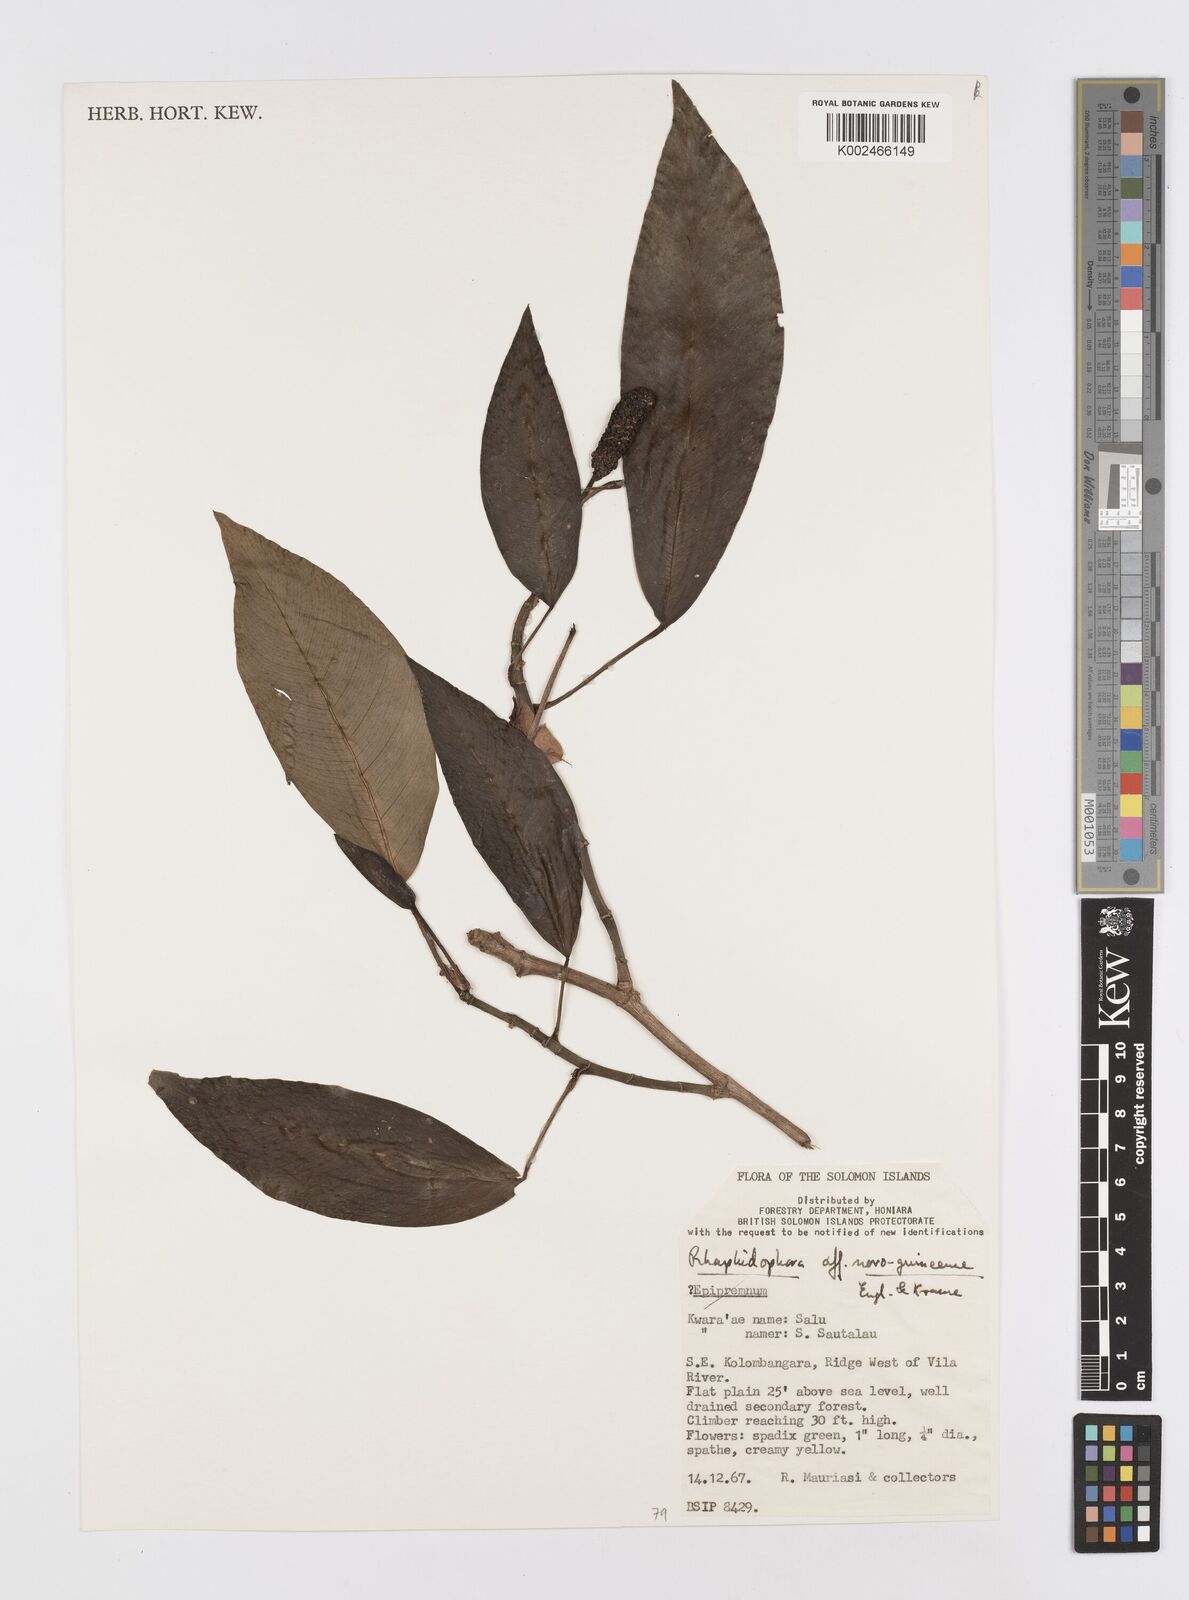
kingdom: Plantae
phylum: Tracheophyta
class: Liliopsida
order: Alismatales
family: Araceae
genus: Rhaphidophora
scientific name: Rhaphidophora mima
